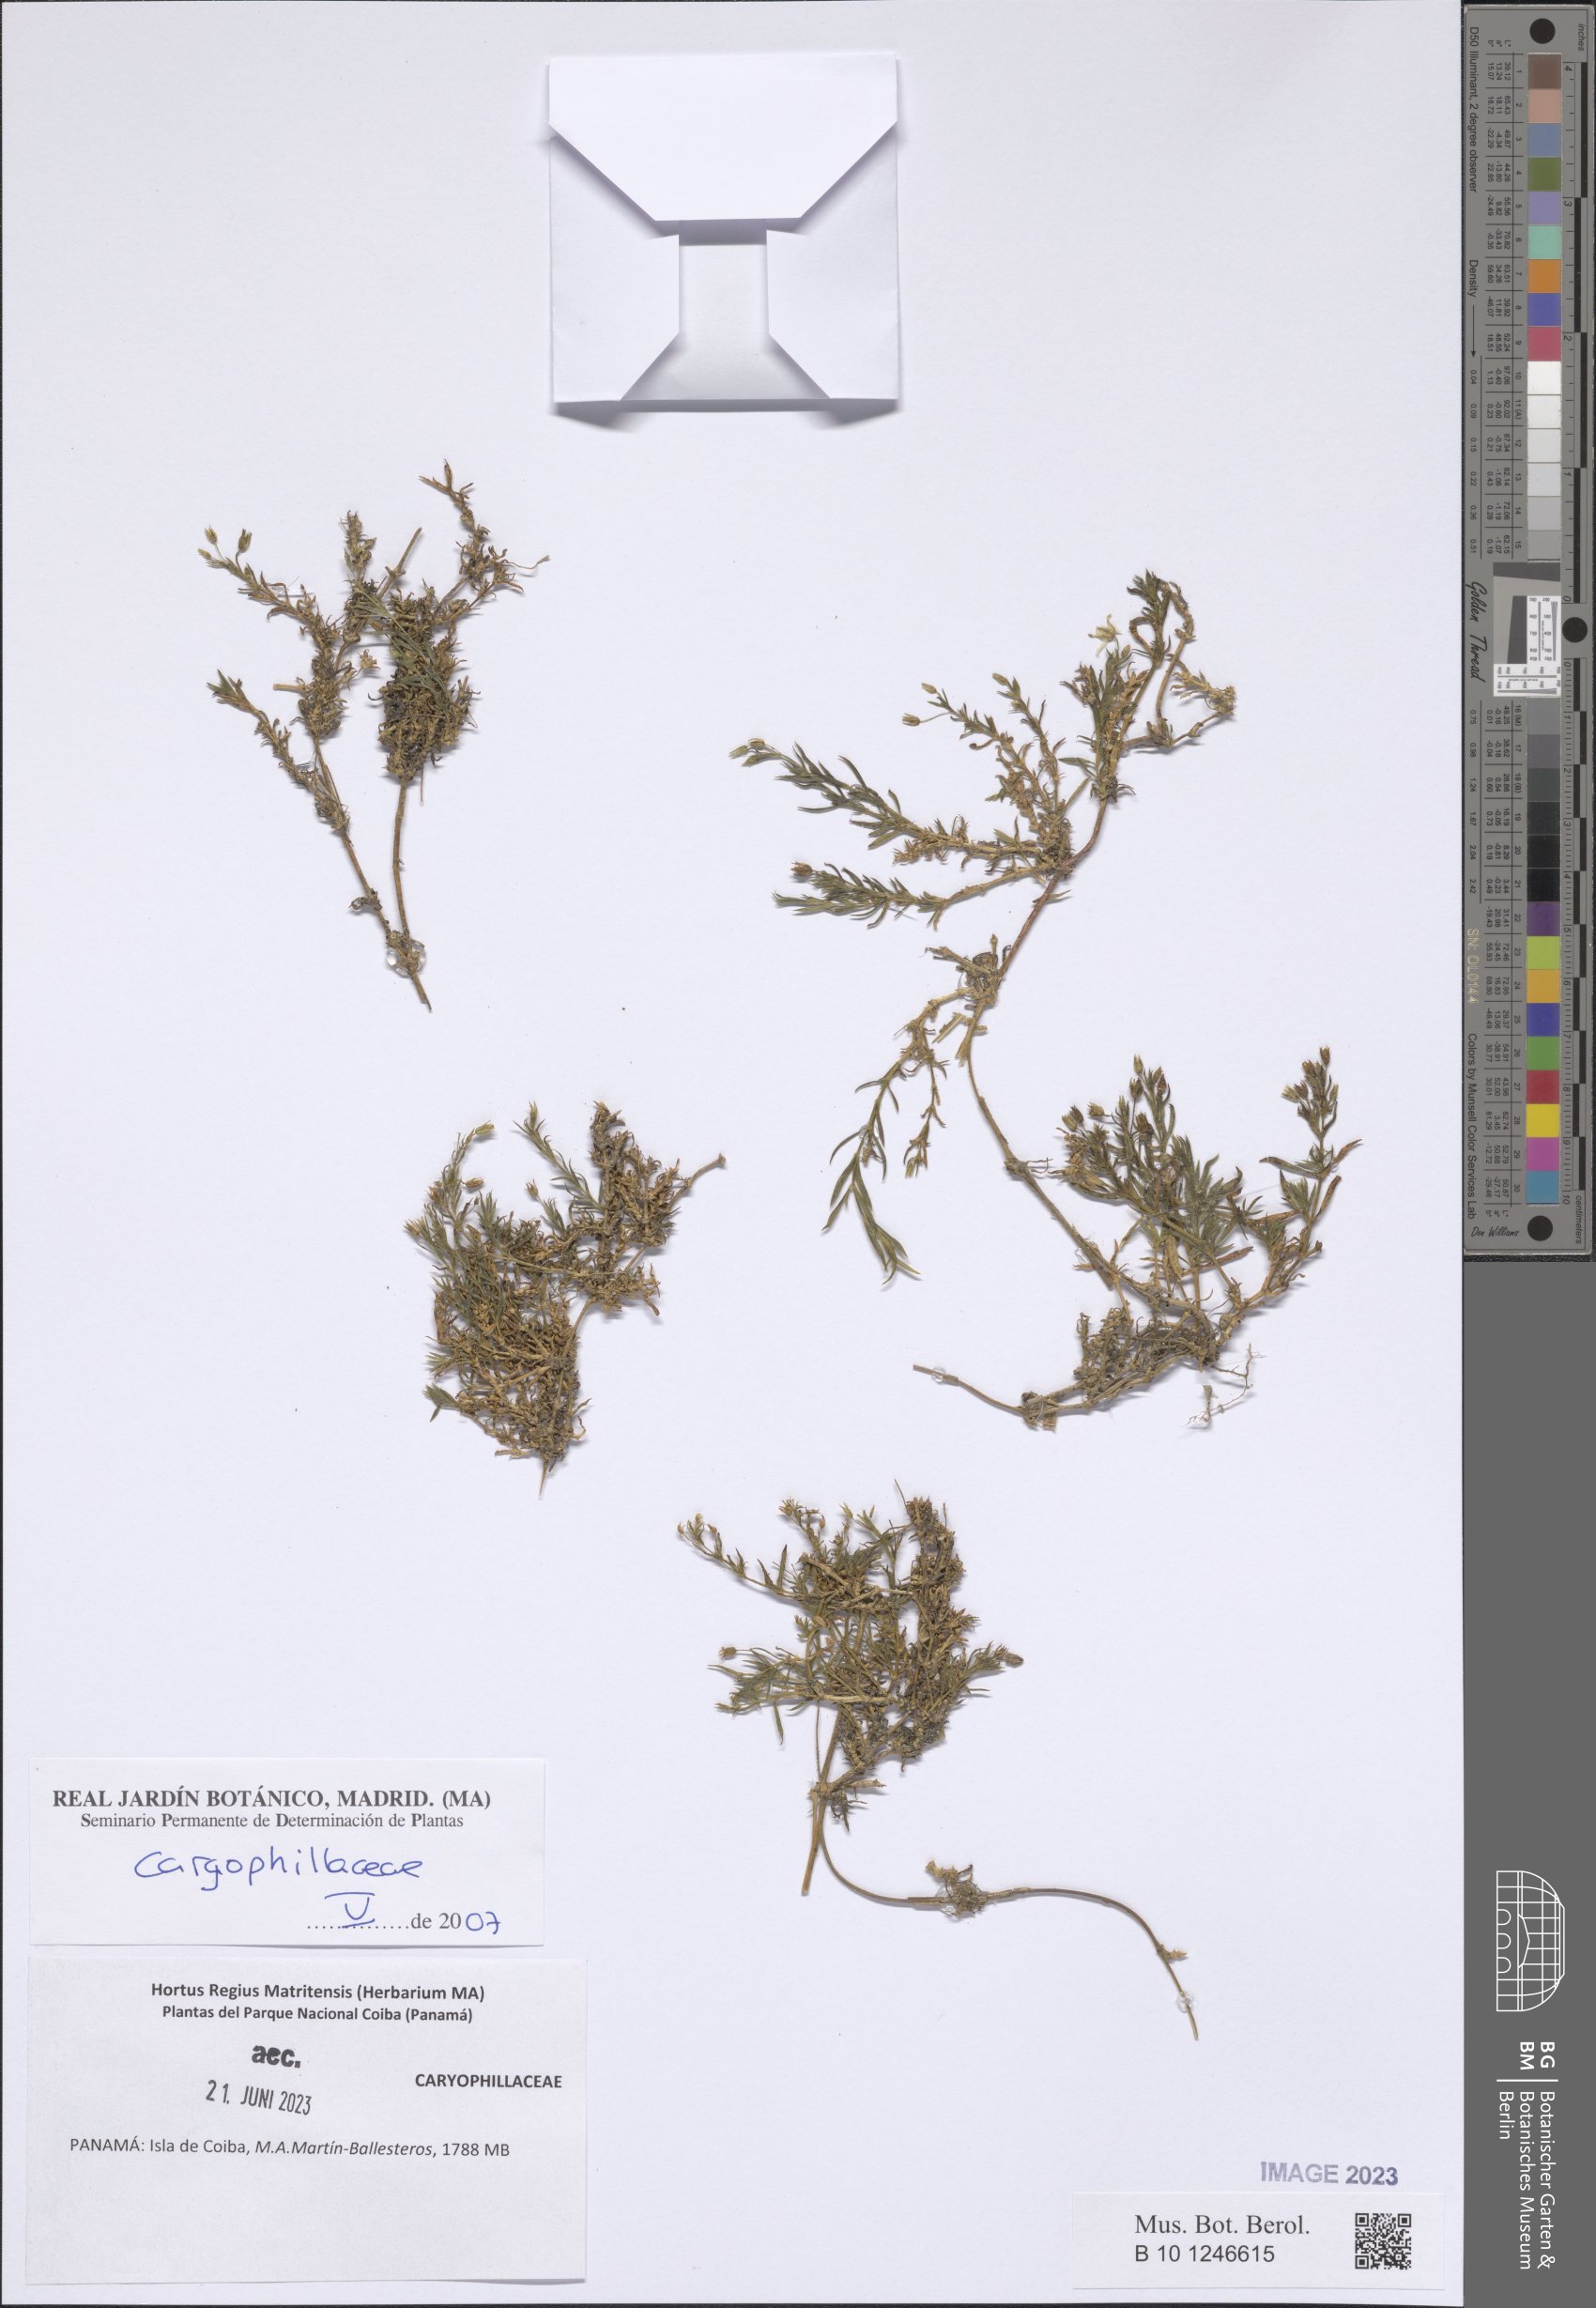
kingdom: Plantae
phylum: Tracheophyta
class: Magnoliopsida
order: Caryophyllales
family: Caryophyllaceae
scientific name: Caryophyllaceae
